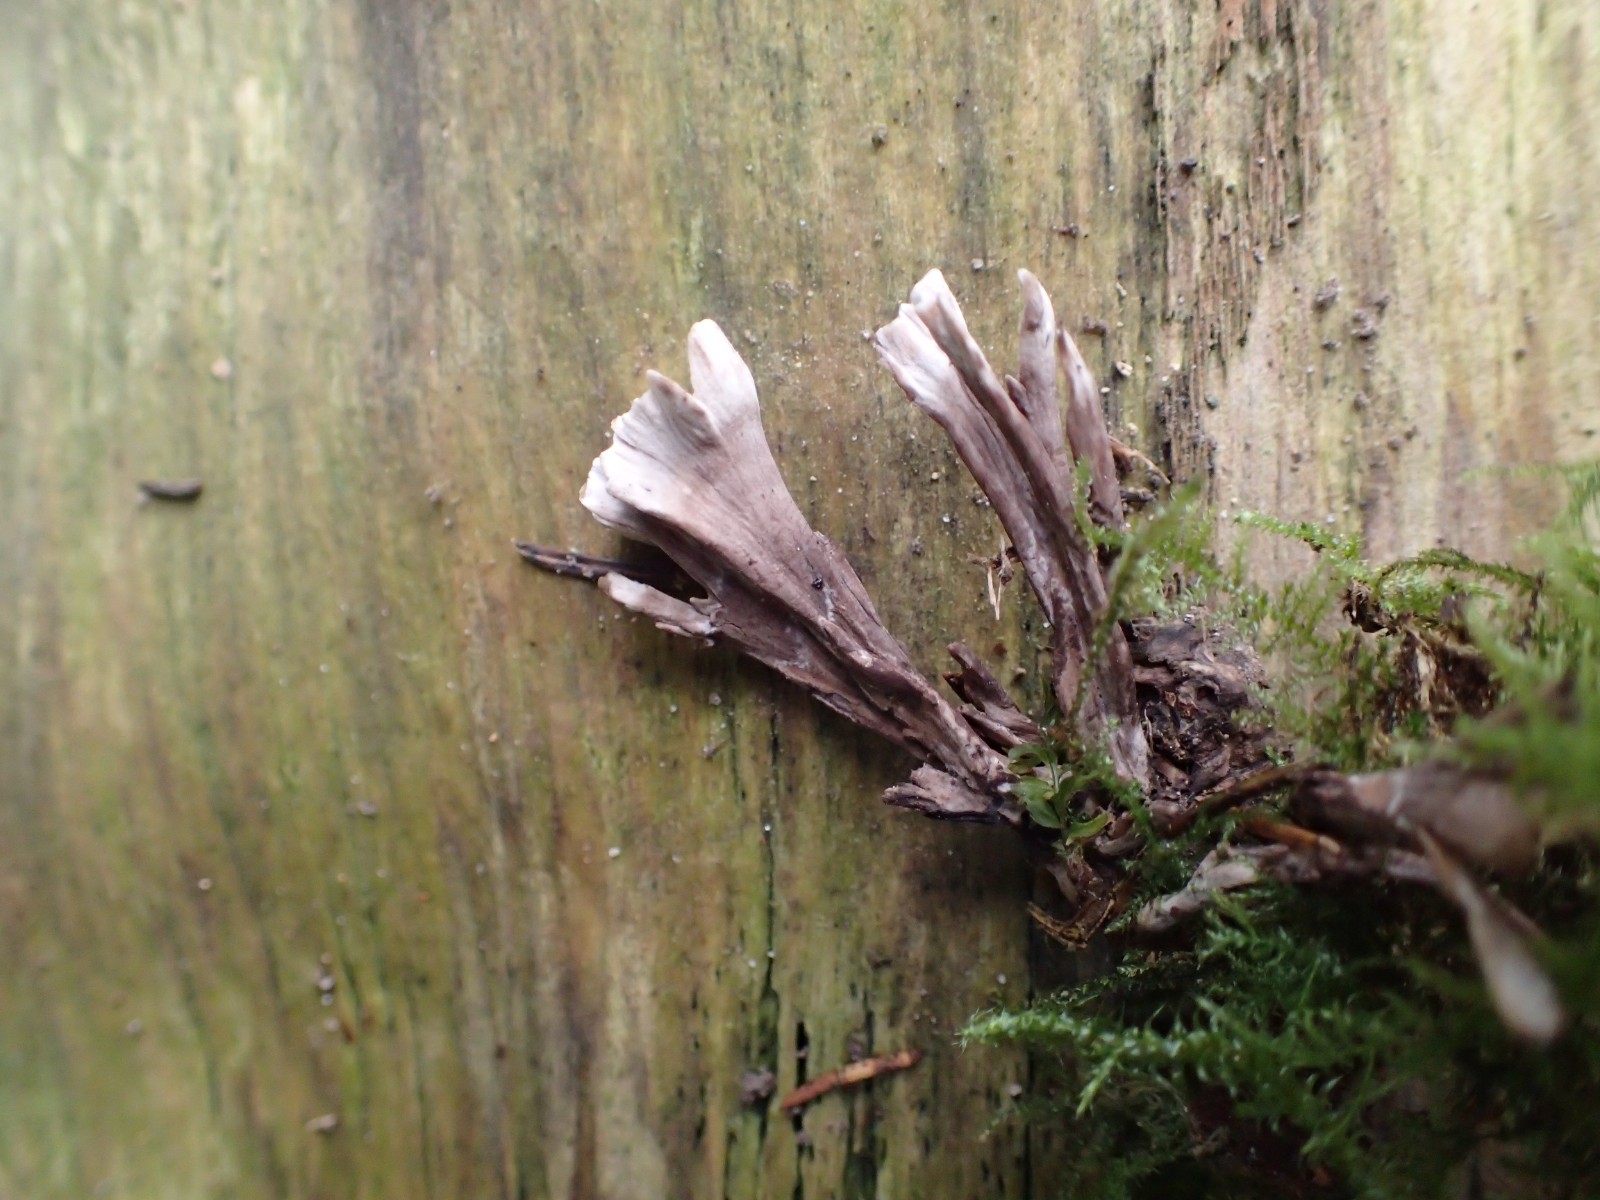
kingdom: Fungi
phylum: Basidiomycota
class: Agaricomycetes
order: Thelephorales
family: Thelephoraceae
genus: Thelephora
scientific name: Thelephora palmata
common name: grenet frynsesvamp
